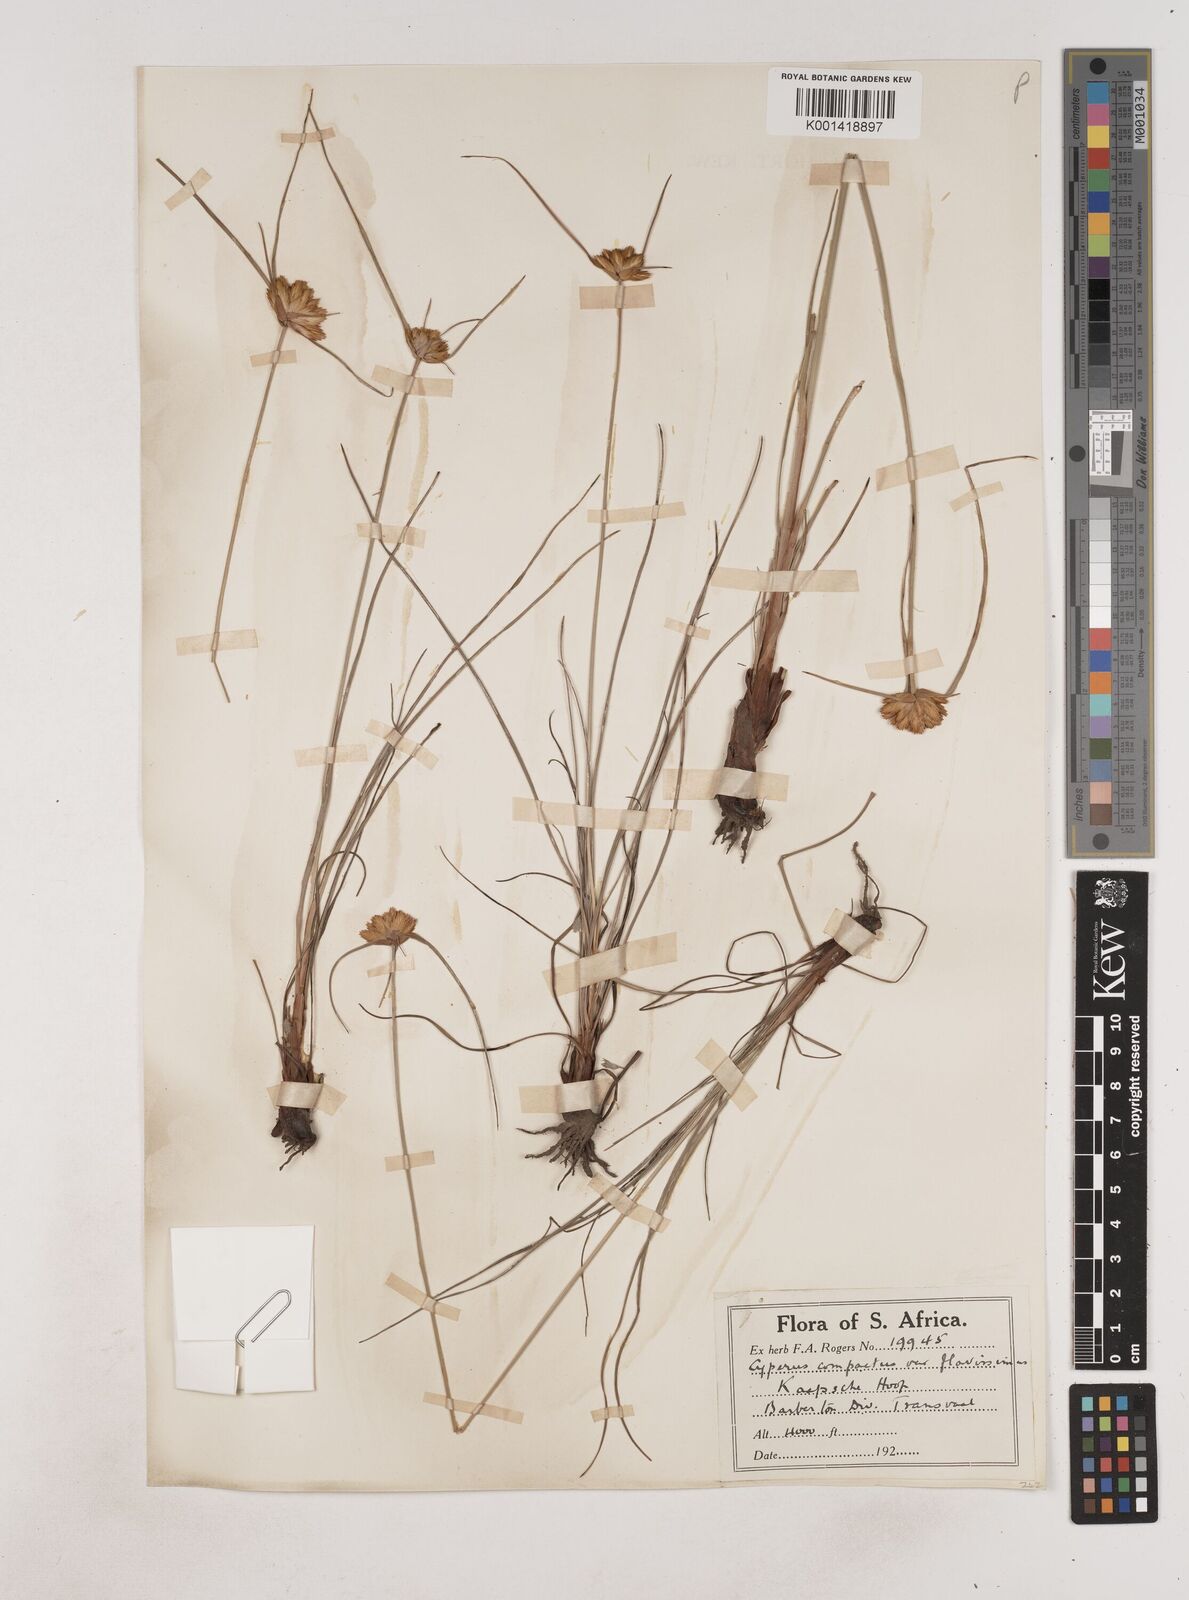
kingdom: Plantae
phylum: Tracheophyta
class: Liliopsida
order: Poales
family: Cyperaceae
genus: Cyperus
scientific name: Cyperus sphaerocephalus
